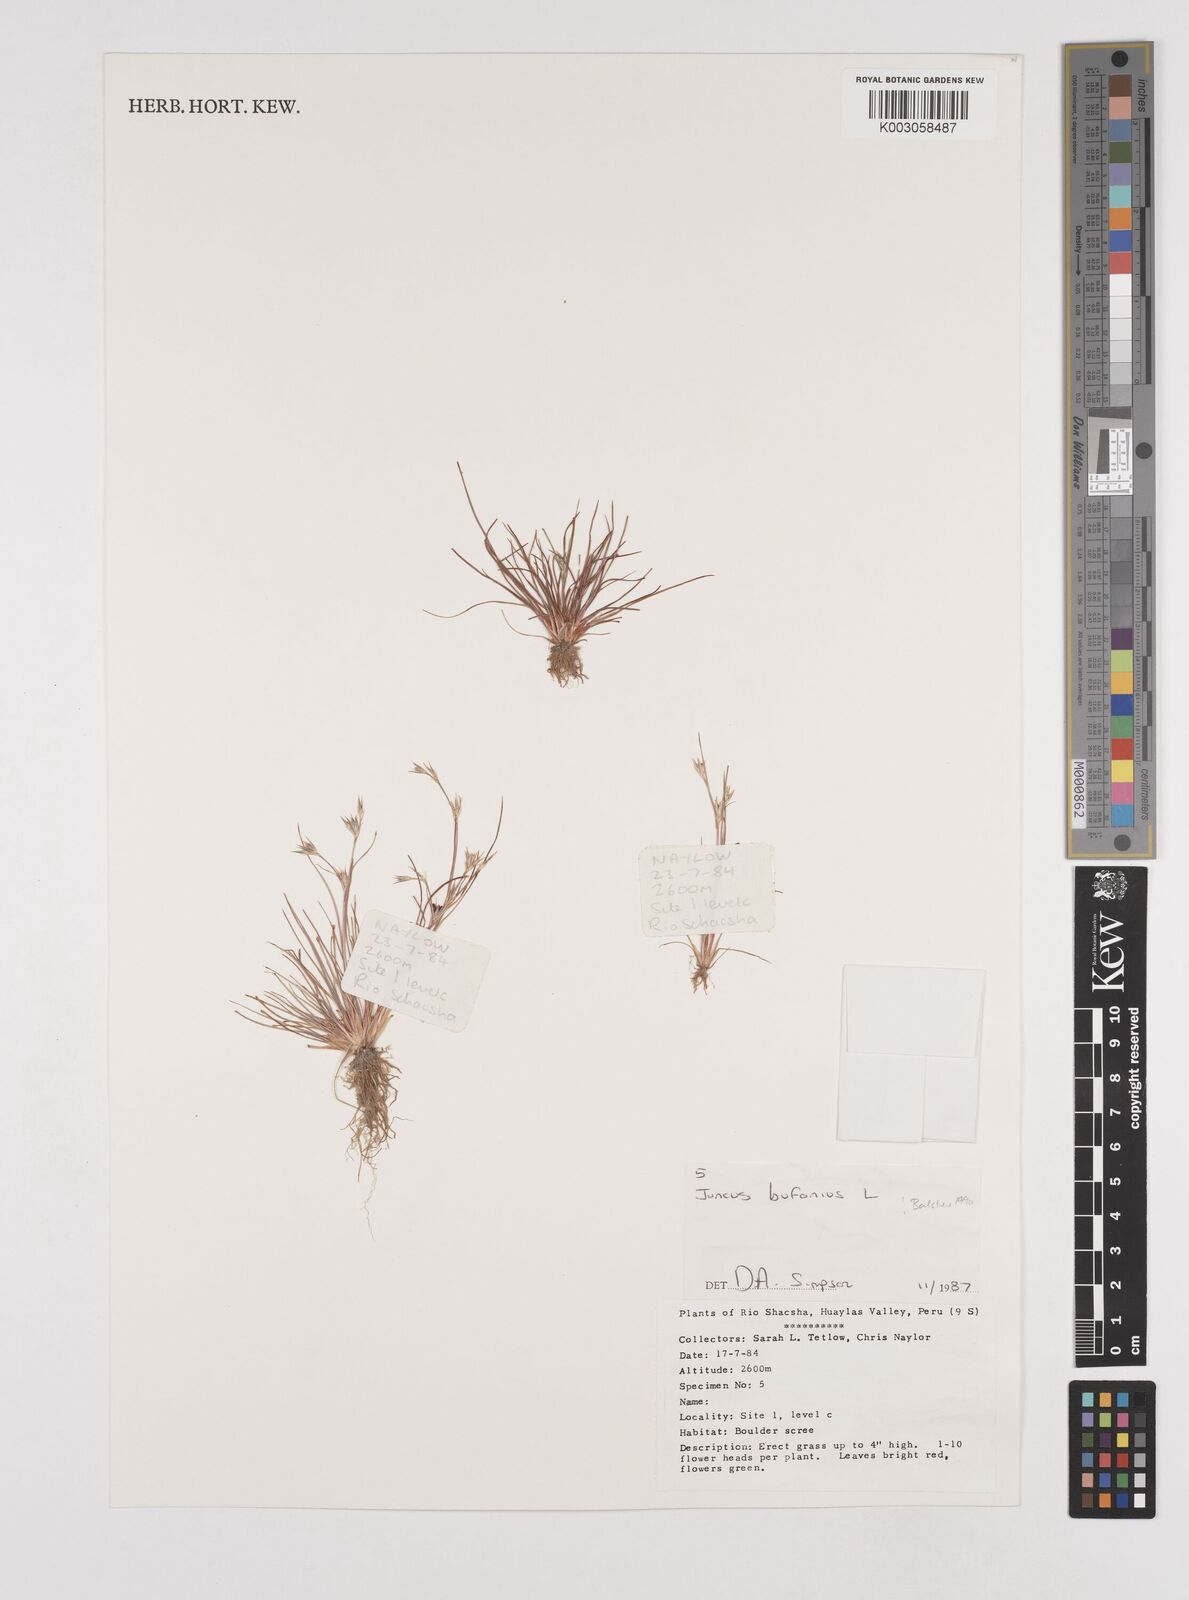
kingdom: Plantae
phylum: Tracheophyta
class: Liliopsida
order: Poales
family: Juncaceae
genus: Juncus
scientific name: Juncus bufonius
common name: Toad rush
